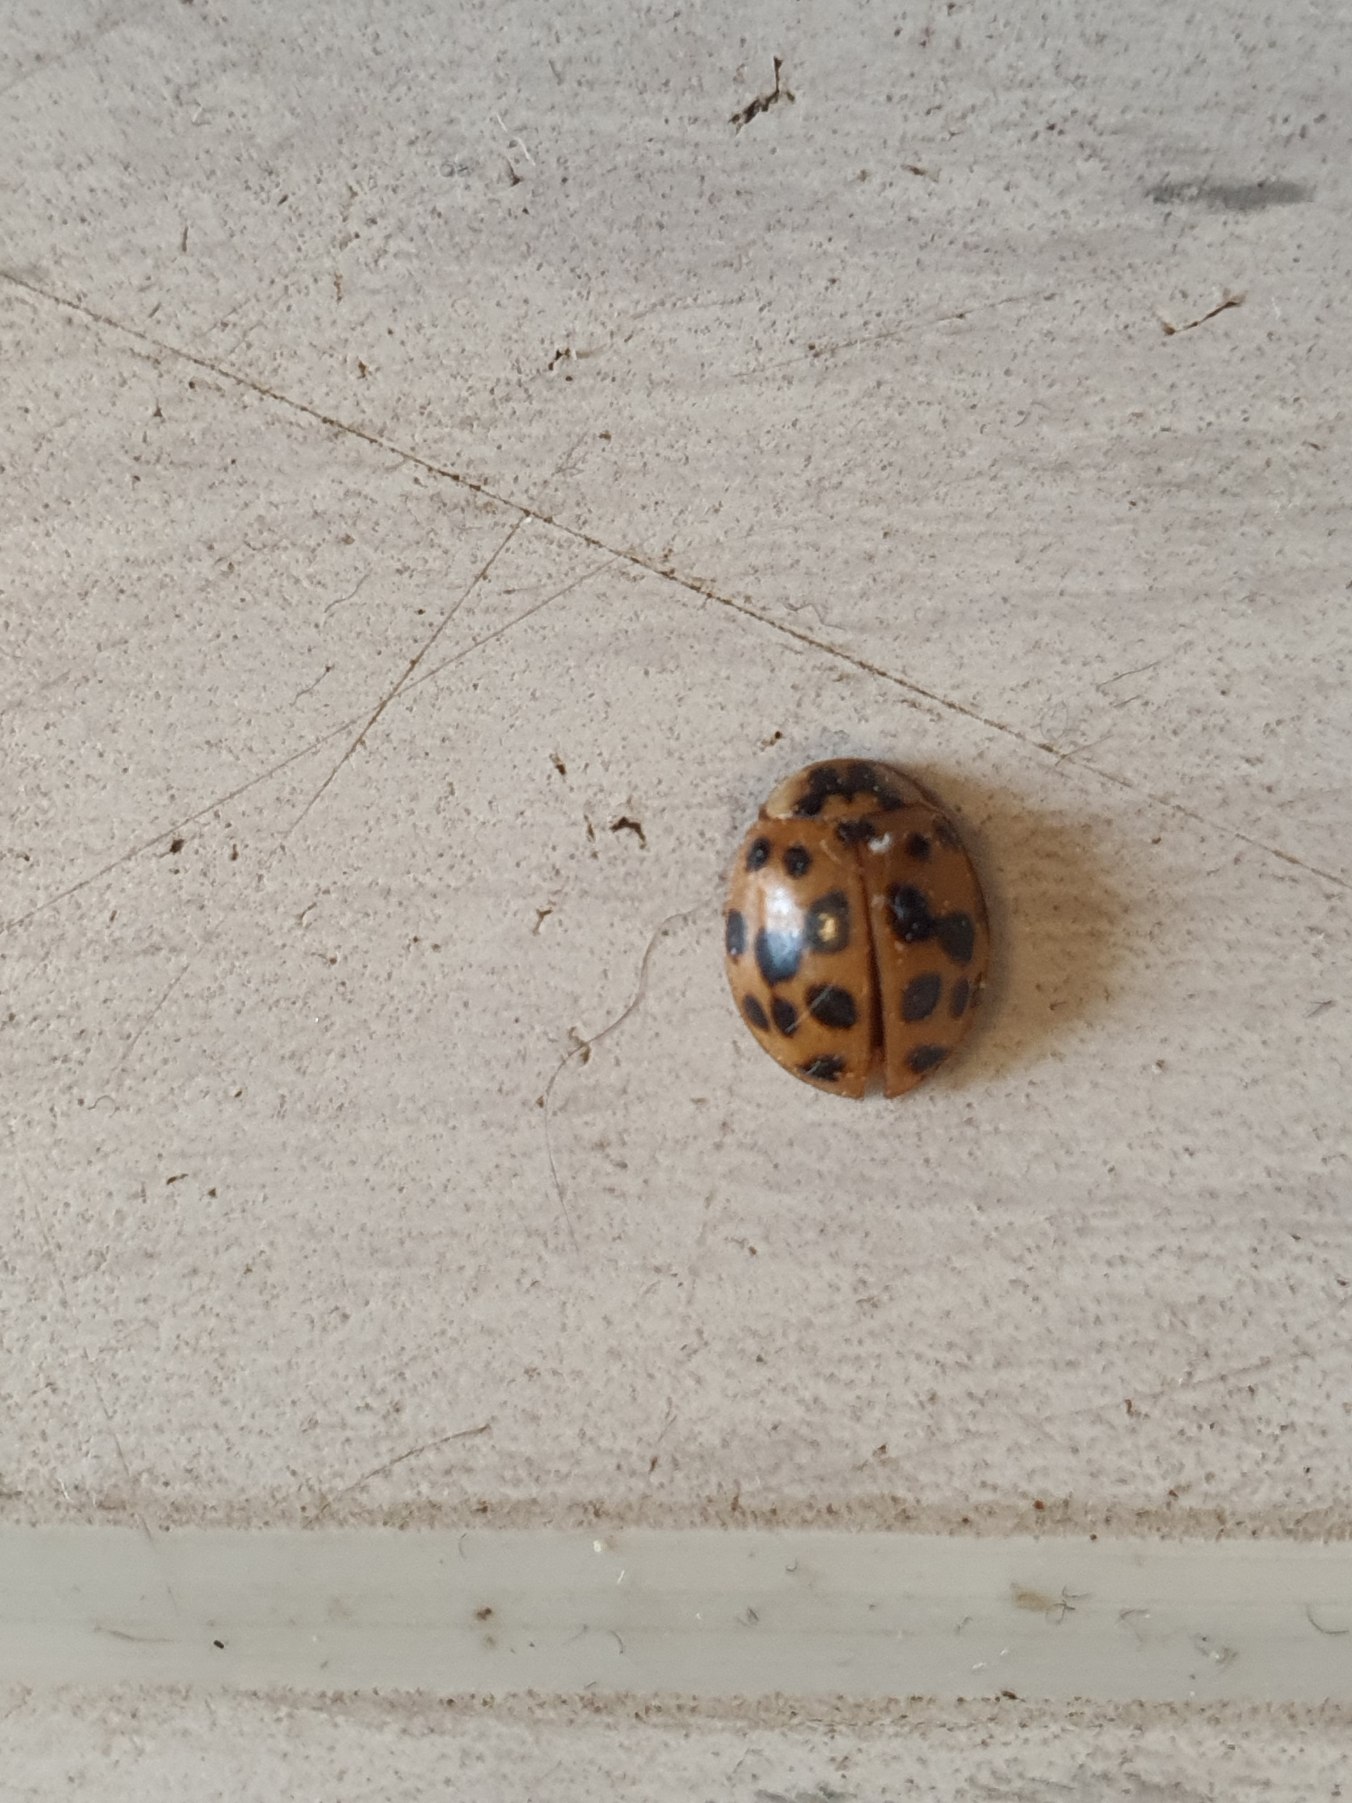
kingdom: Animalia
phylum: Arthropoda
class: Insecta
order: Coleoptera
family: Coccinellidae
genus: Harmonia
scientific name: Harmonia axyridis
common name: Harlekinmariehøne
